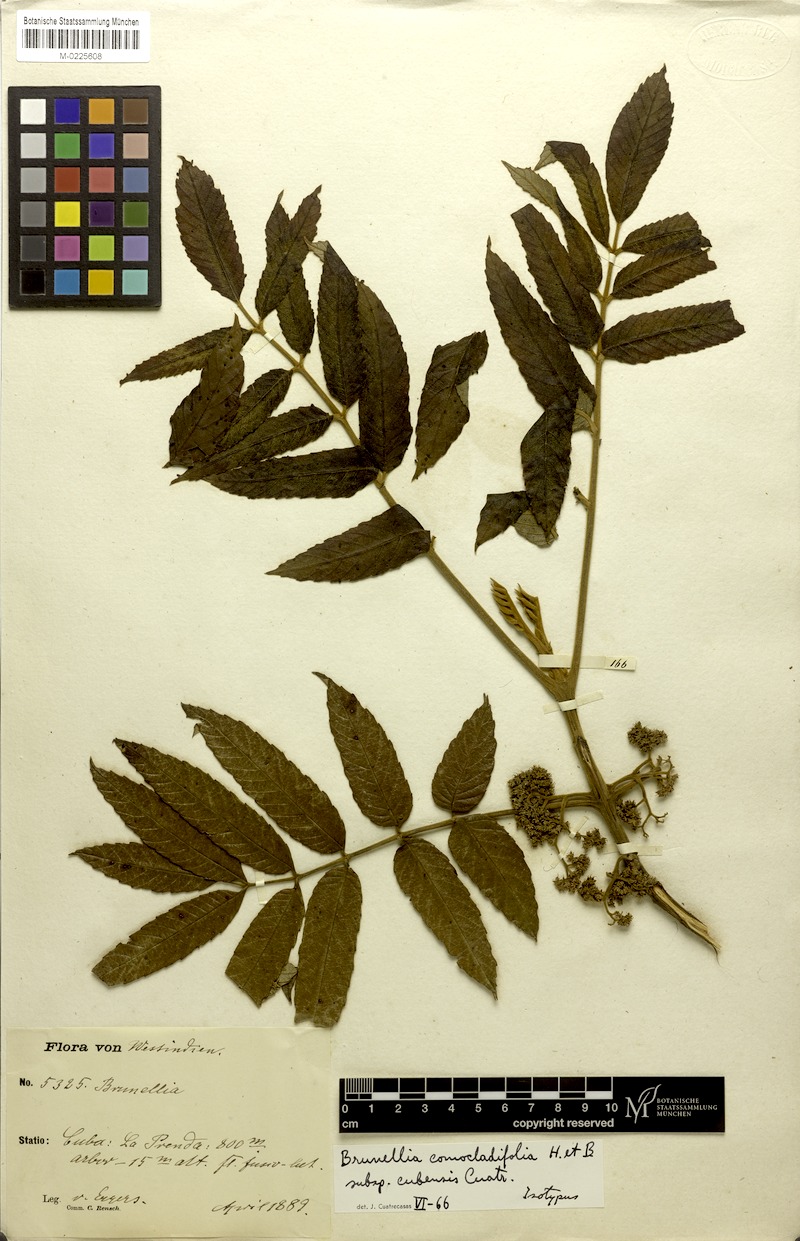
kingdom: Plantae
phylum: Tracheophyta
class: Magnoliopsida
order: Oxalidales
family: Brunelliaceae
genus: Brunellia
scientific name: Brunellia comocladifolia
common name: West indian sumac
